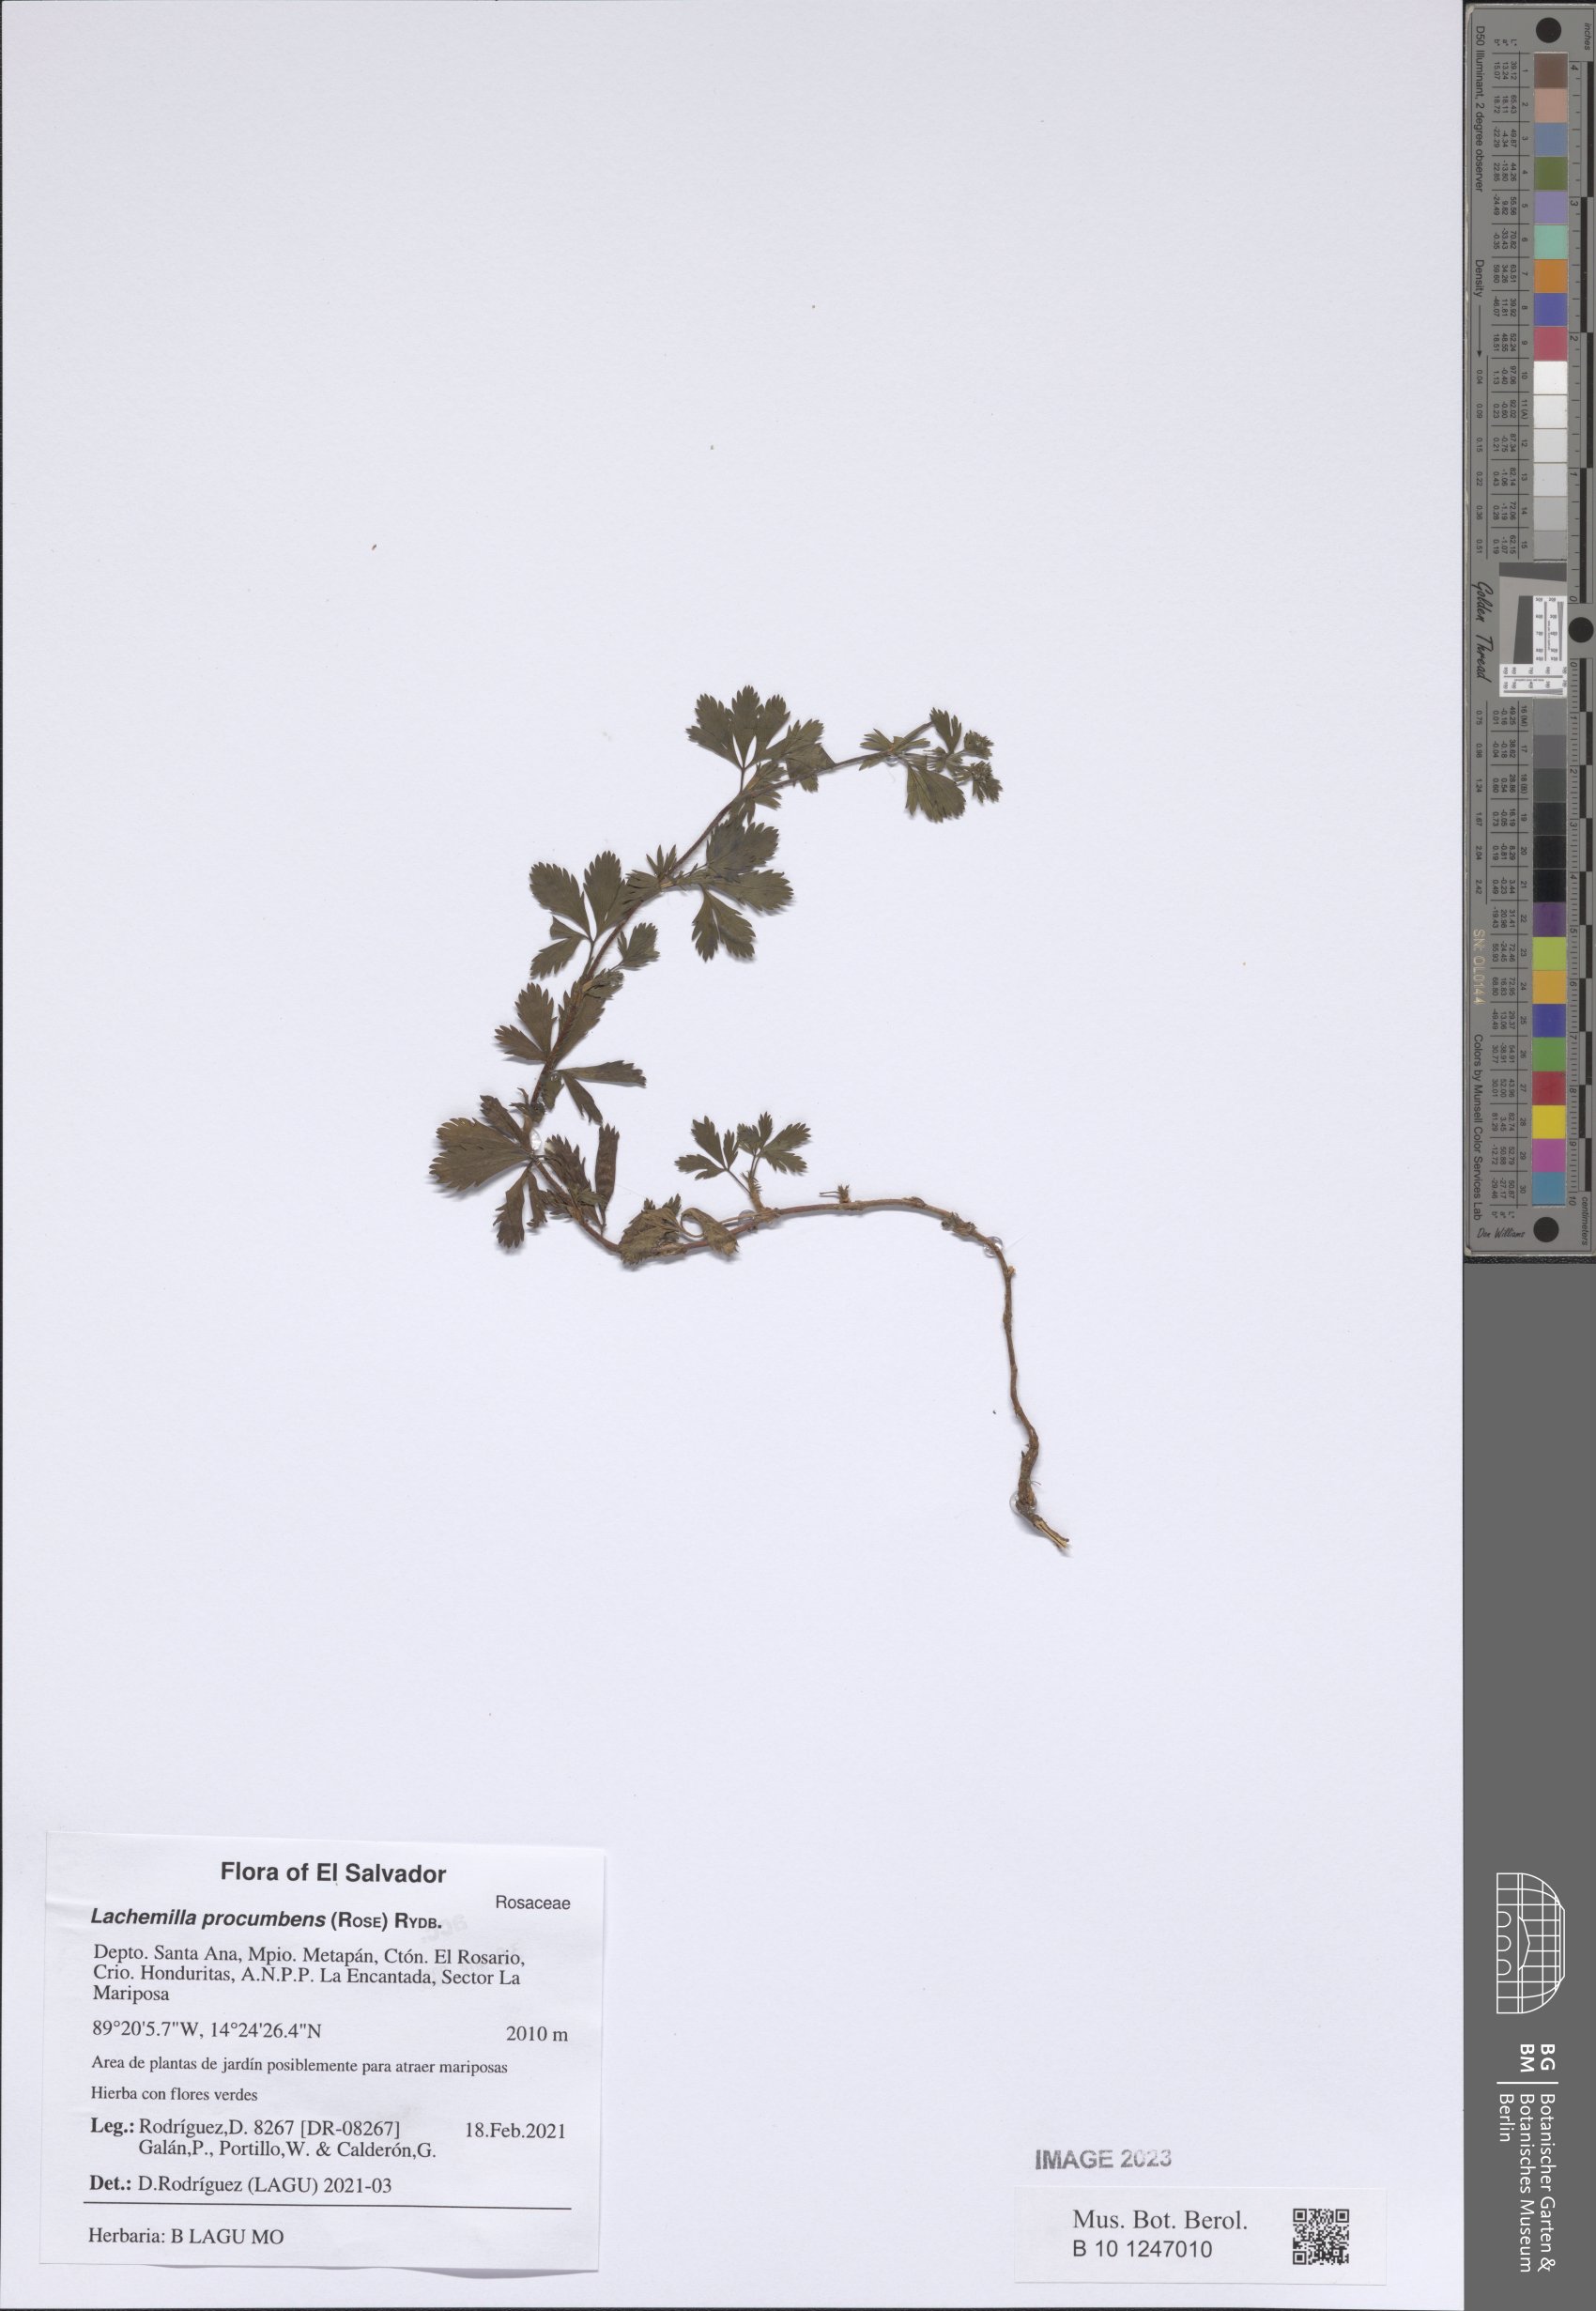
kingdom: Plantae
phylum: Tracheophyta
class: Magnoliopsida
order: Rosales
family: Rosaceae
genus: Lachemilla
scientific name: Lachemilla procumbens
